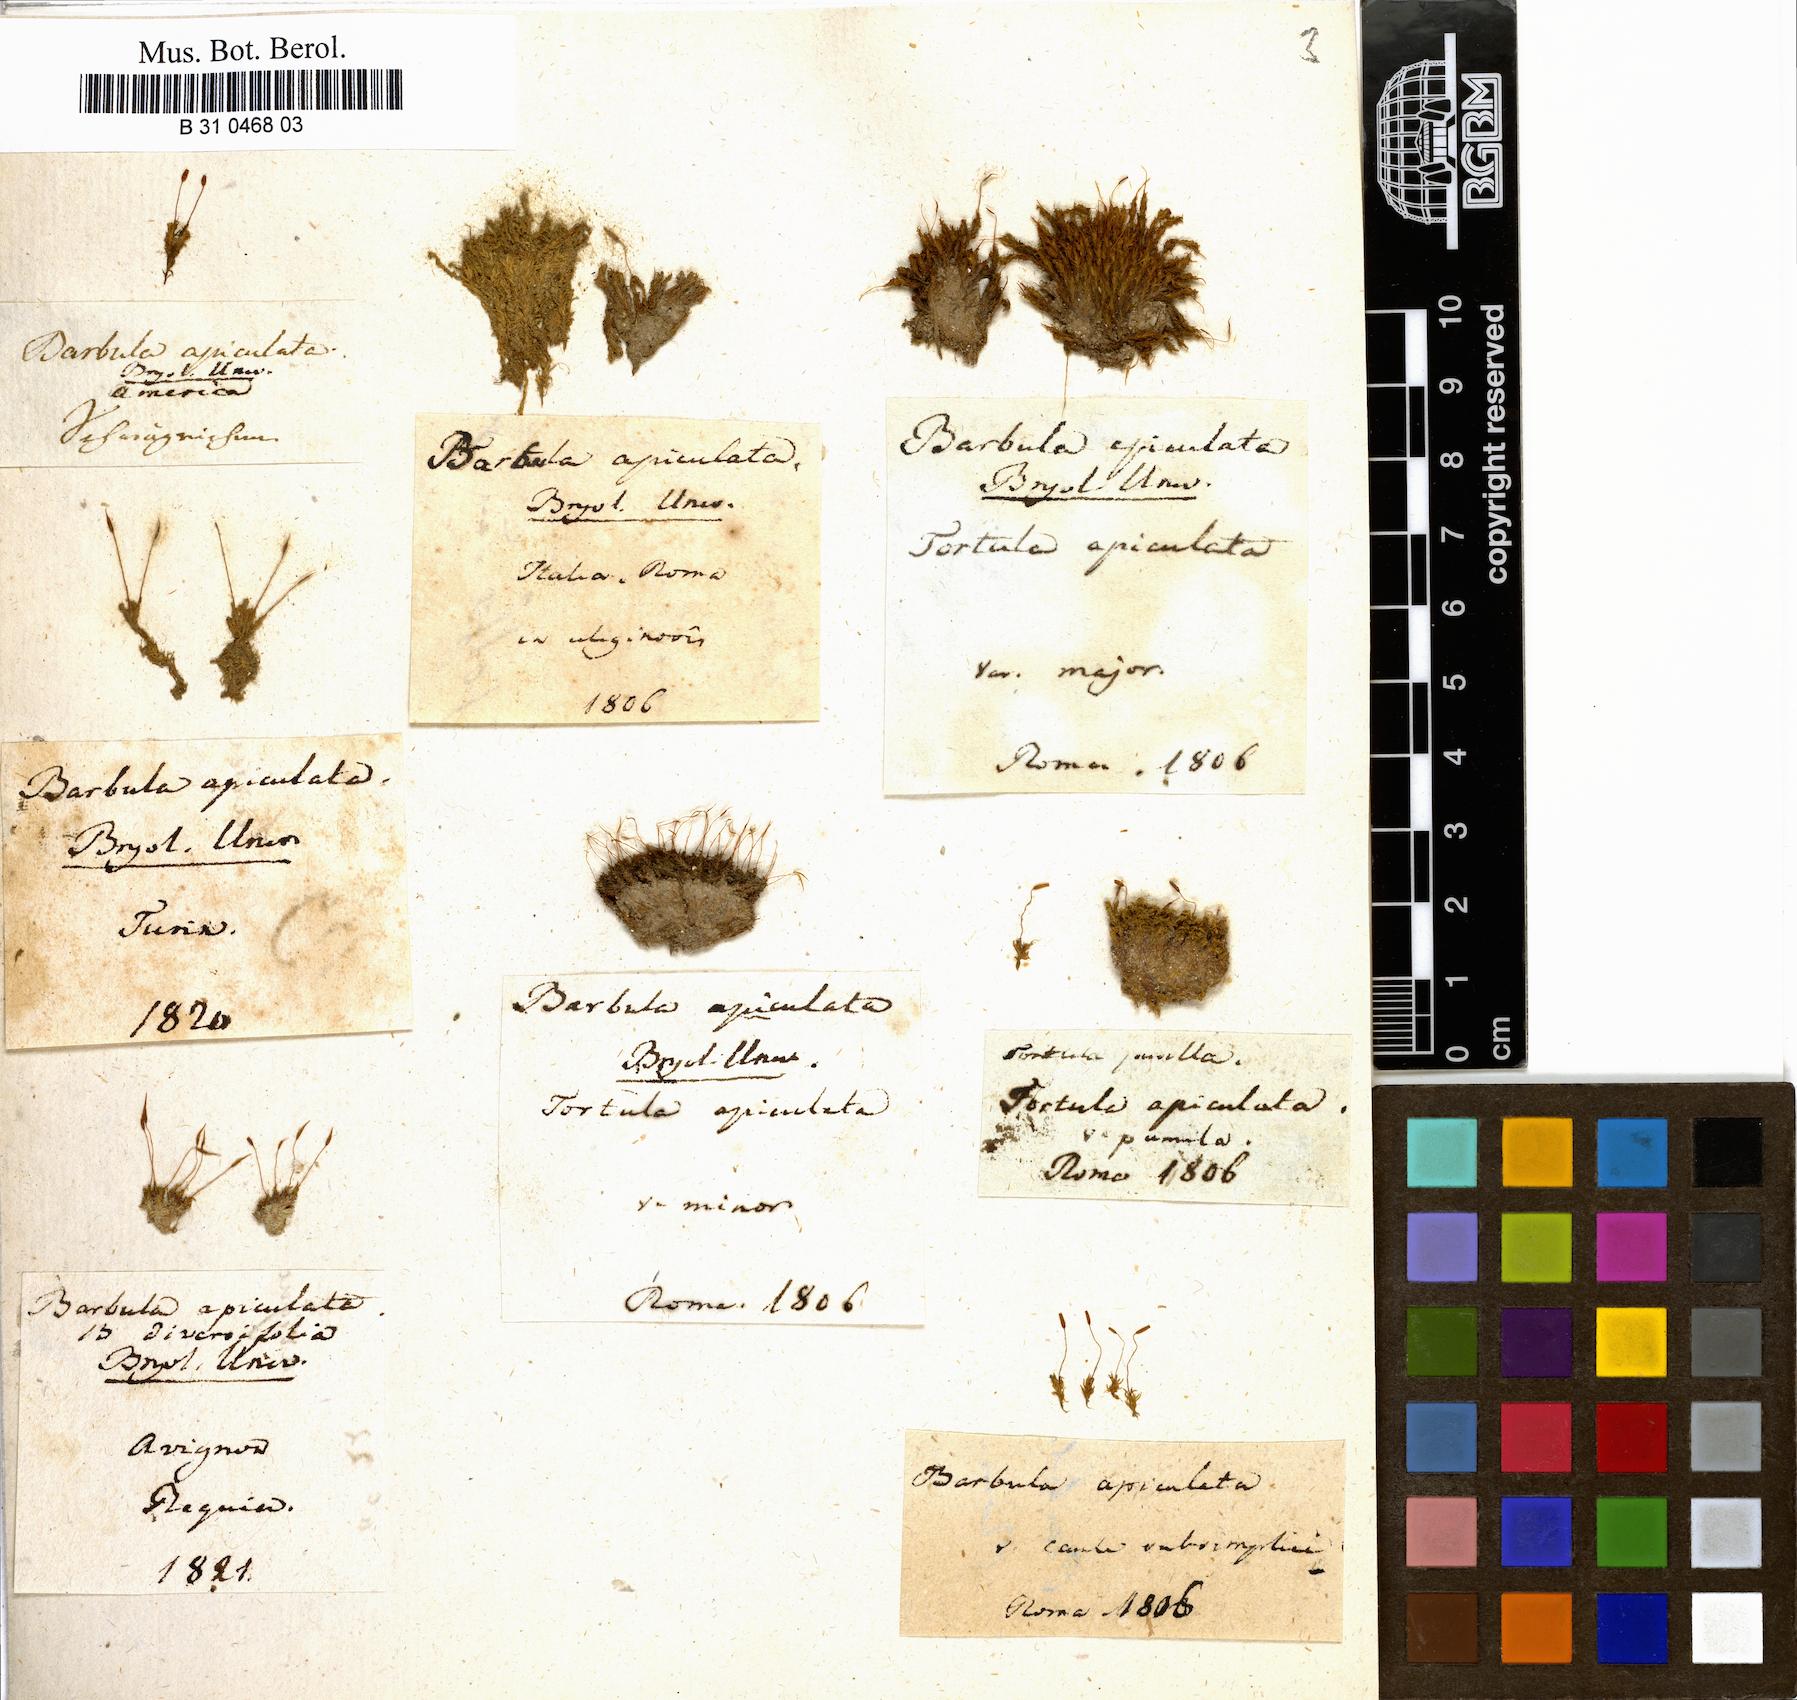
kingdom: Plantae
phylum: Bryophyta
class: Bryopsida
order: Pottiales
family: Pottiaceae
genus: Barbula
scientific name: Barbula unguiculata
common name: Prickly beard moss
